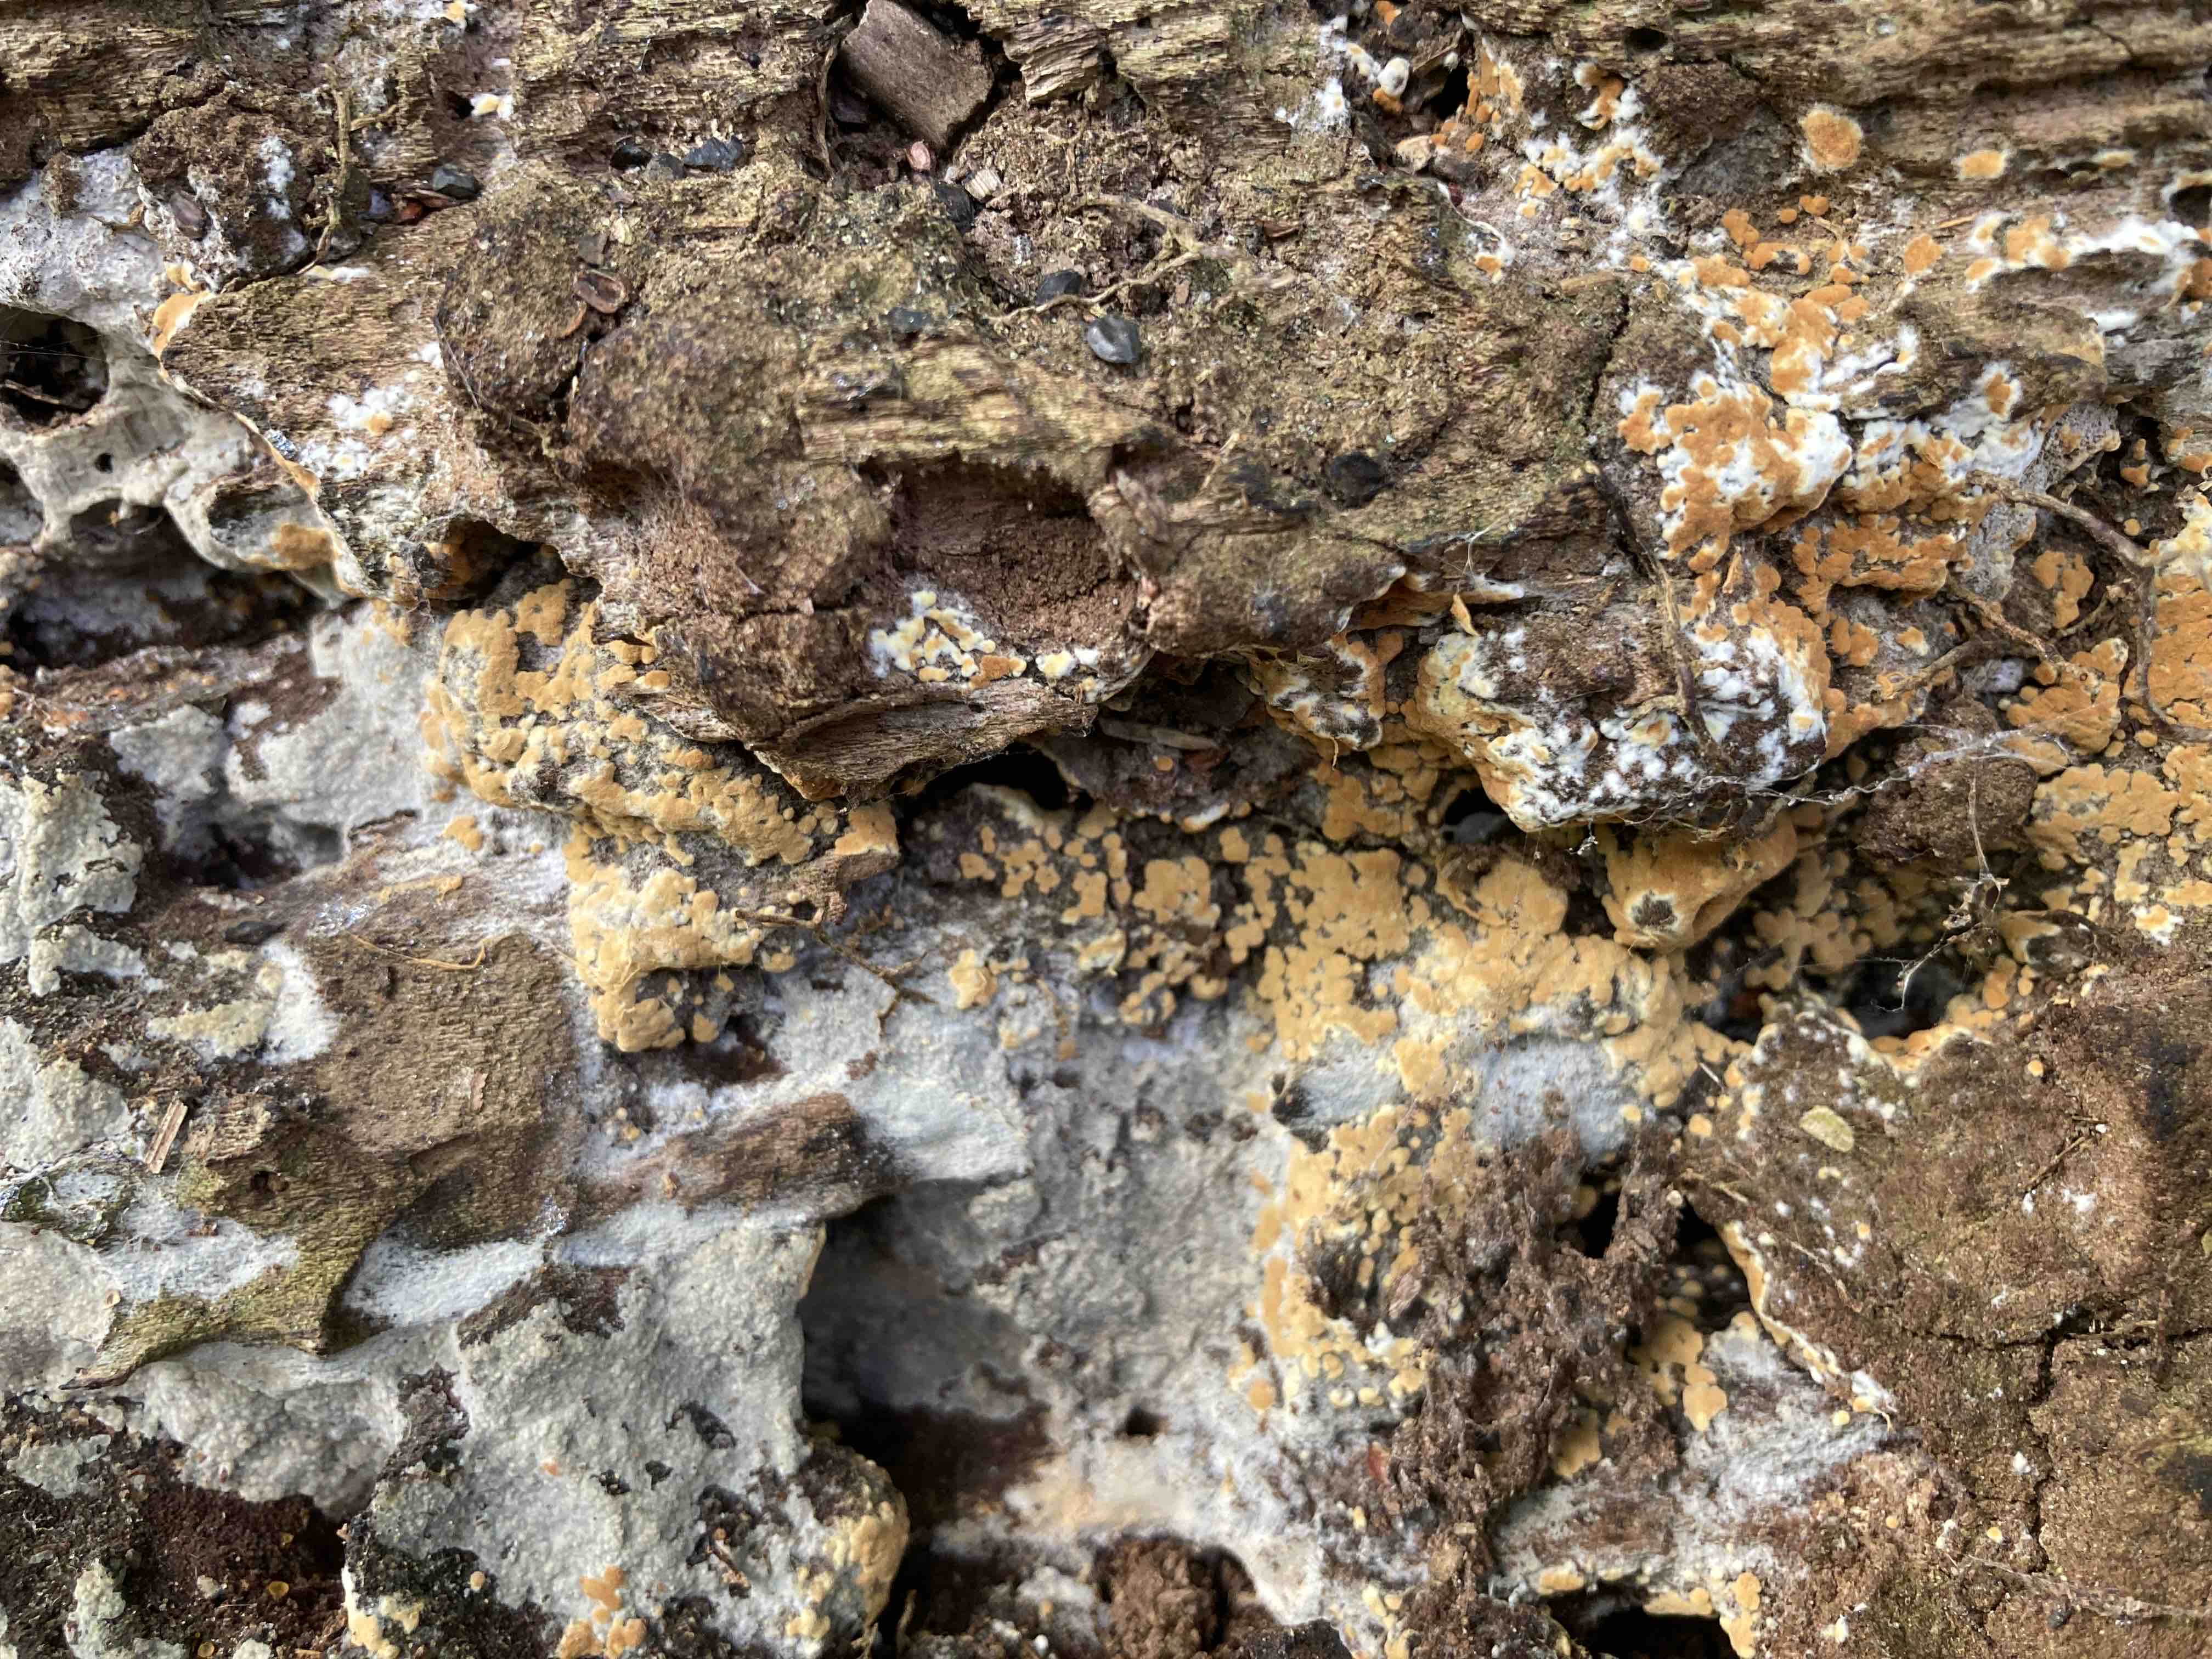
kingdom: Fungi
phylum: Basidiomycota
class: Agaricomycetes
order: Cantharellales
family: Botryobasidiaceae
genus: Botryobasidium
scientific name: Botryobasidium aureum
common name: gylden spindhinde
